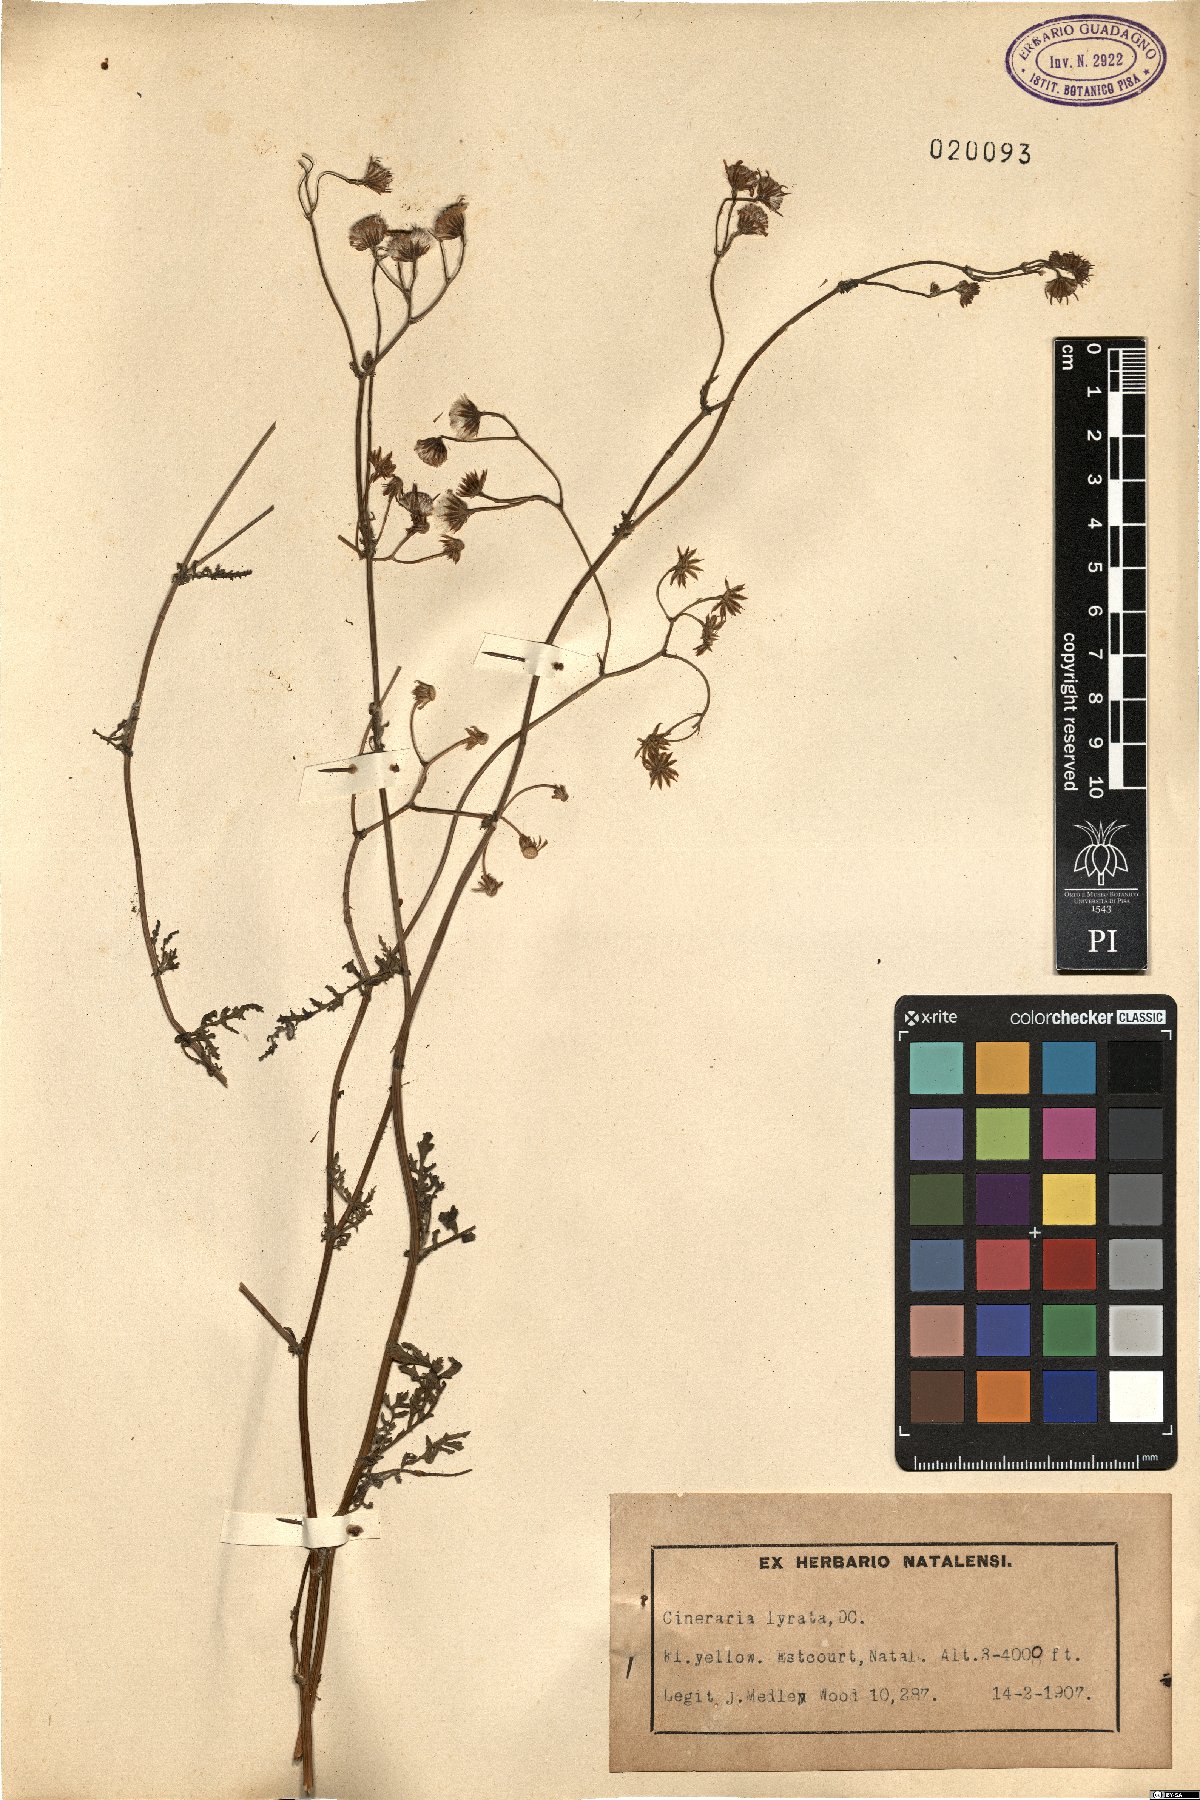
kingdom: Plantae
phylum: Tracheophyta
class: Magnoliopsida
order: Asterales
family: Asteraceae
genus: Cineraria
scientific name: Cineraria lyratiformis
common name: Cineraria
